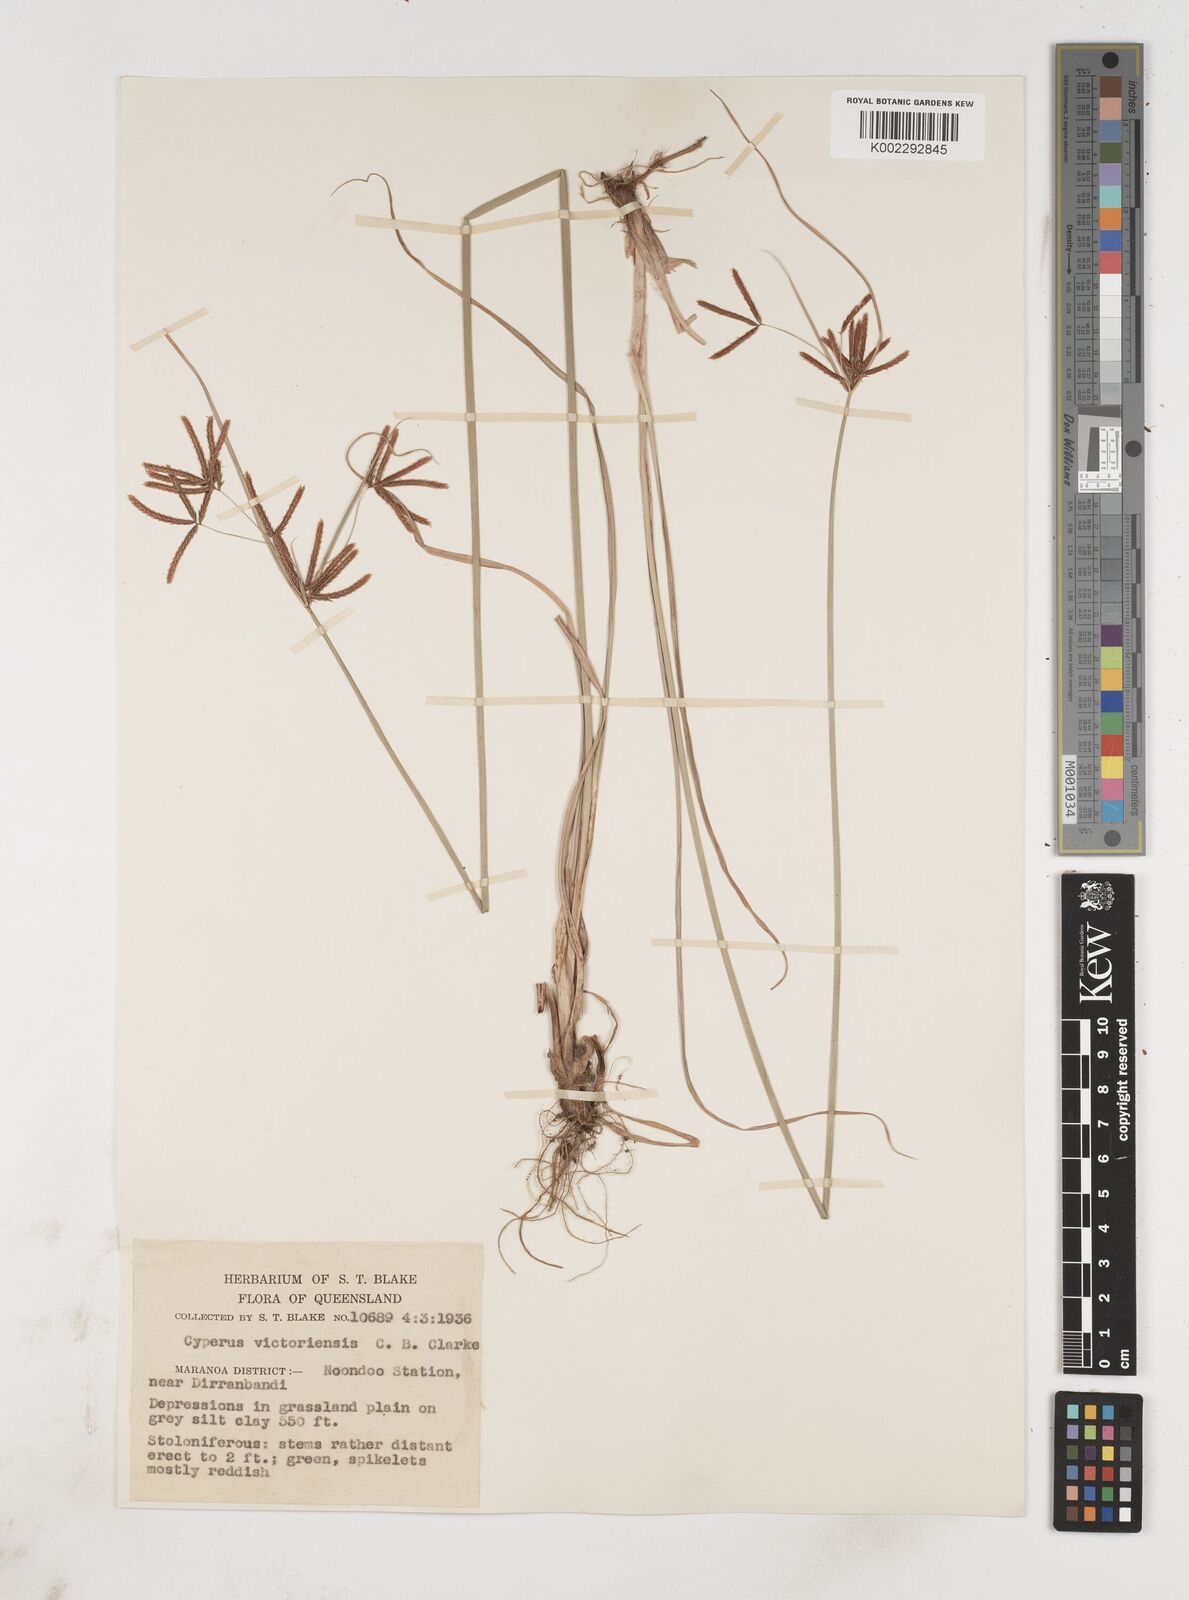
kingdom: Plantae
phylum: Tracheophyta
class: Liliopsida
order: Poales
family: Cyperaceae
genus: Cyperus
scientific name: Cyperus victoriensis
